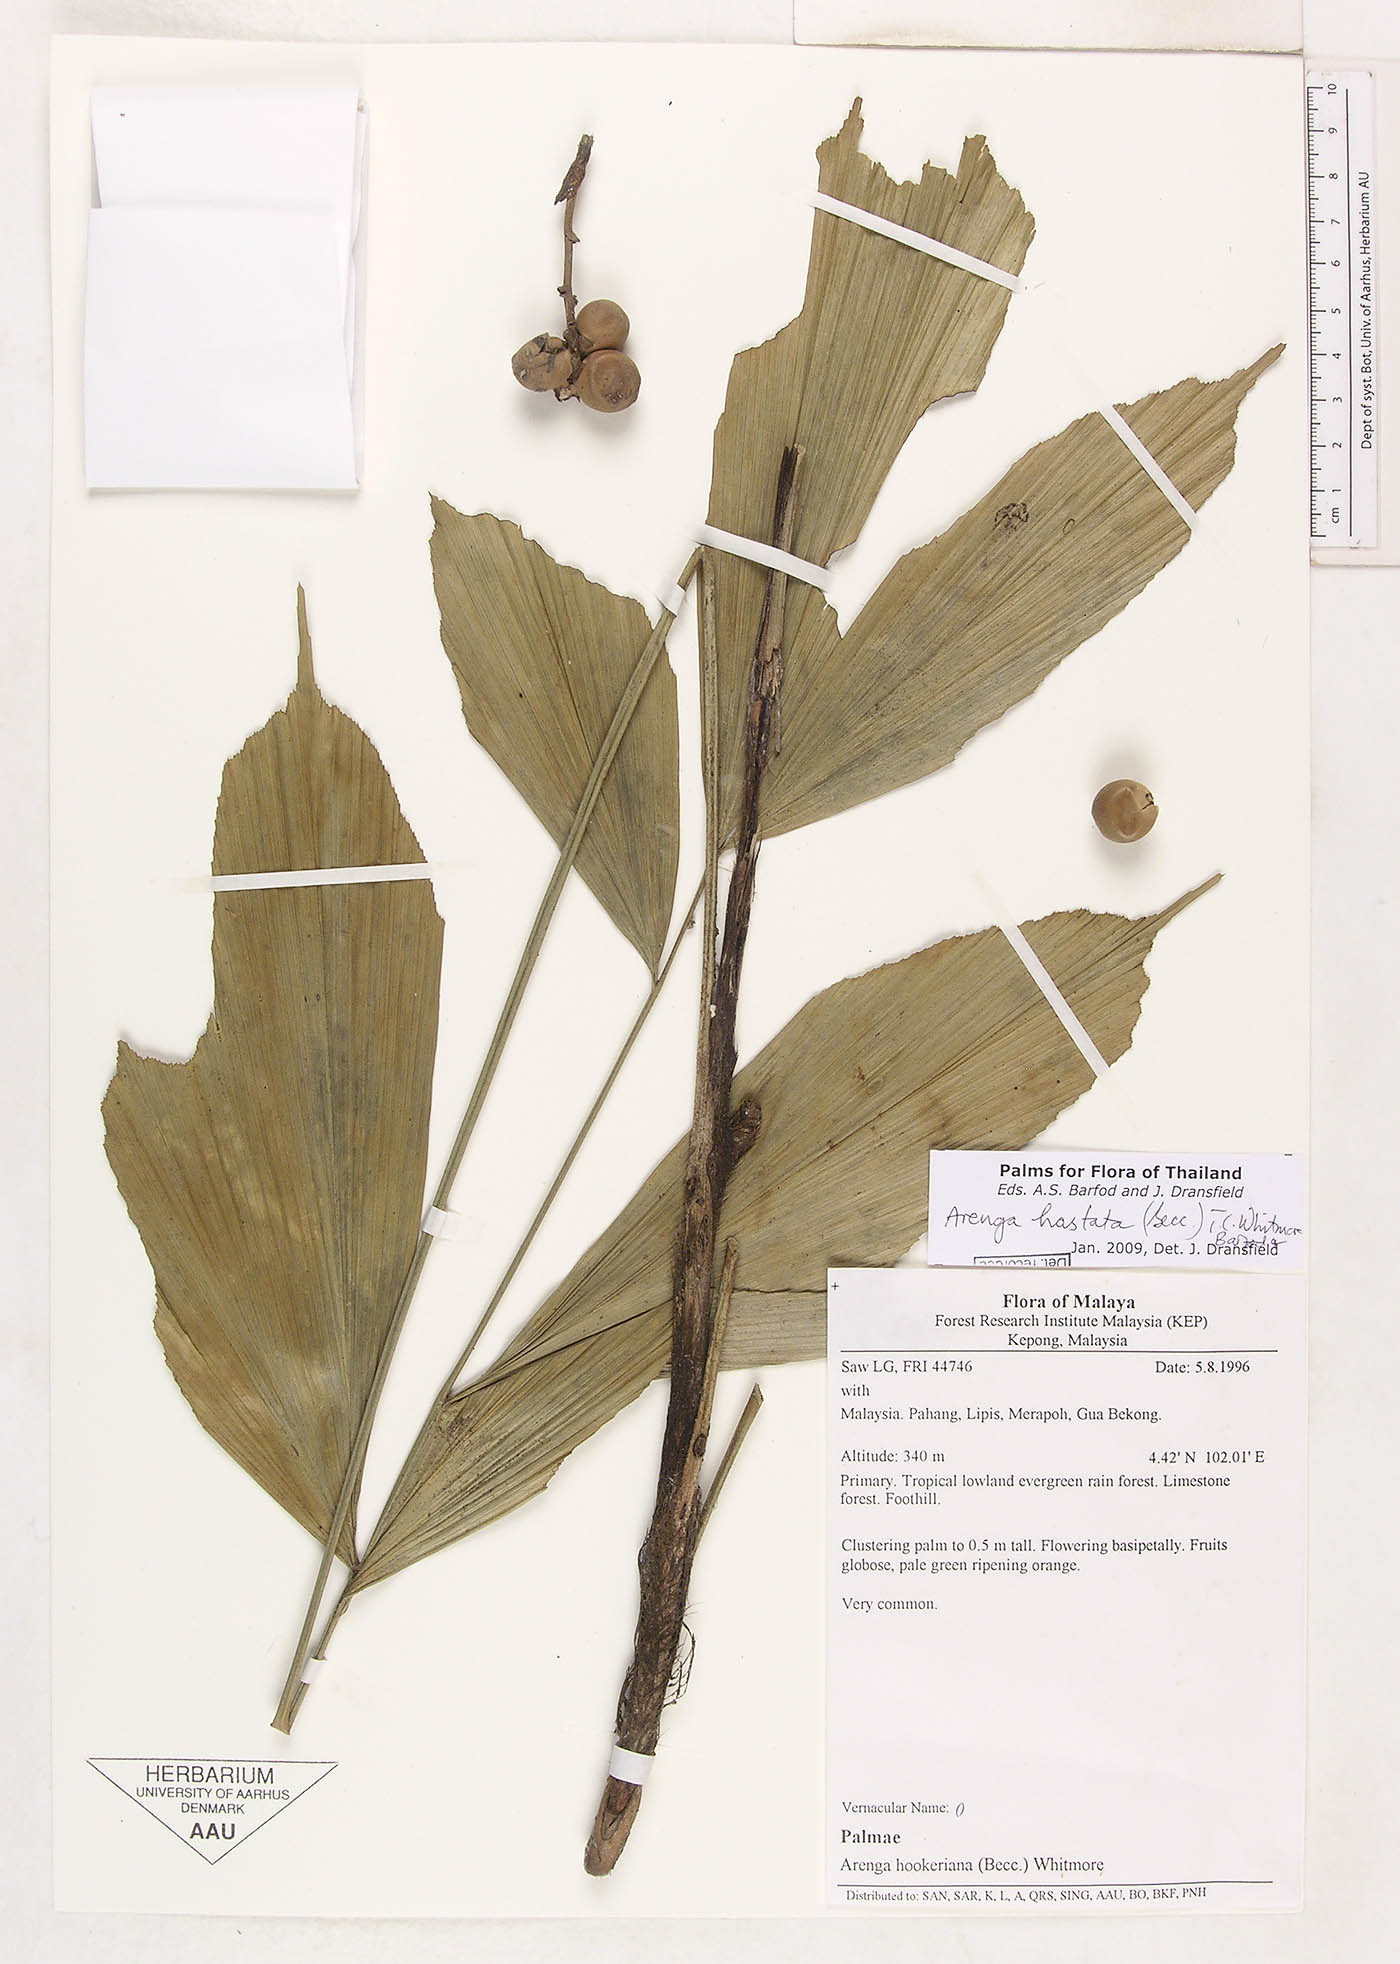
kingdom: Plantae
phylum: Tracheophyta
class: Liliopsida
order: Arecales
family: Arecaceae
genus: Arenga
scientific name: Arenga hastata
